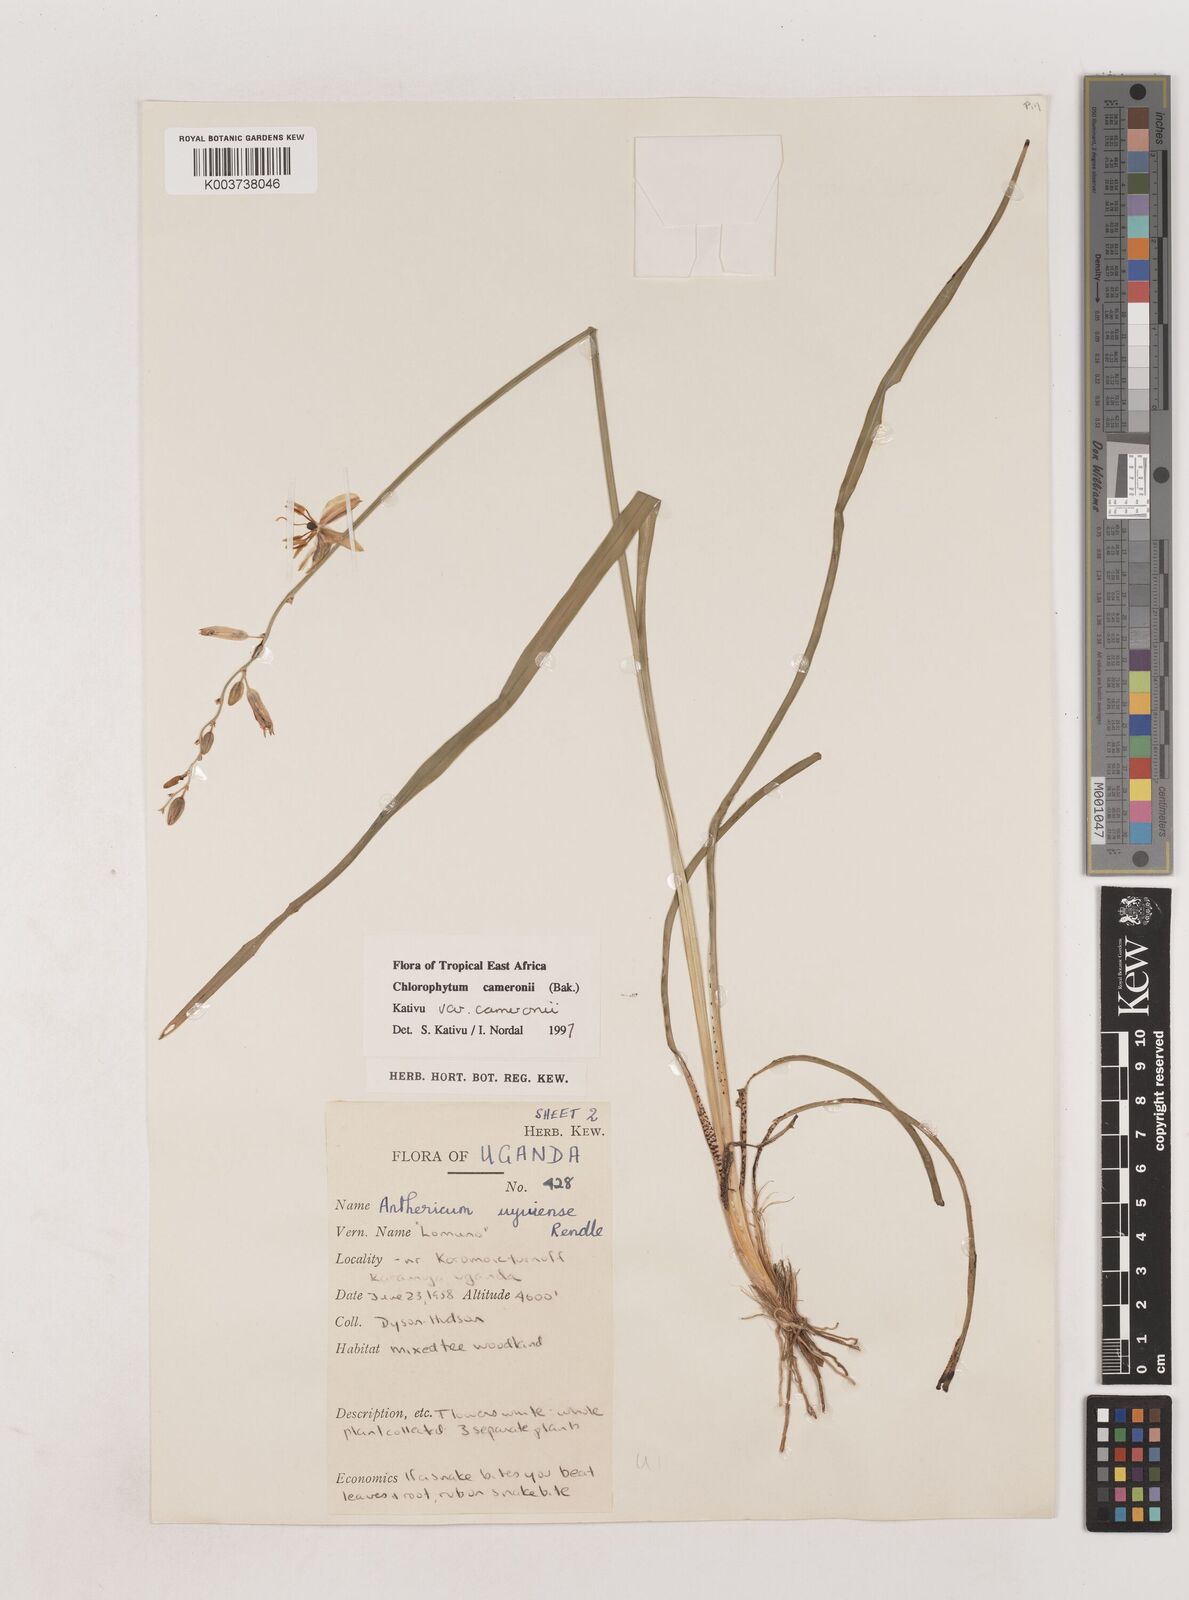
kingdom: Plantae
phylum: Tracheophyta
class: Liliopsida
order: Asparagales
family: Asparagaceae
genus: Chlorophytum
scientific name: Chlorophytum cameronii
